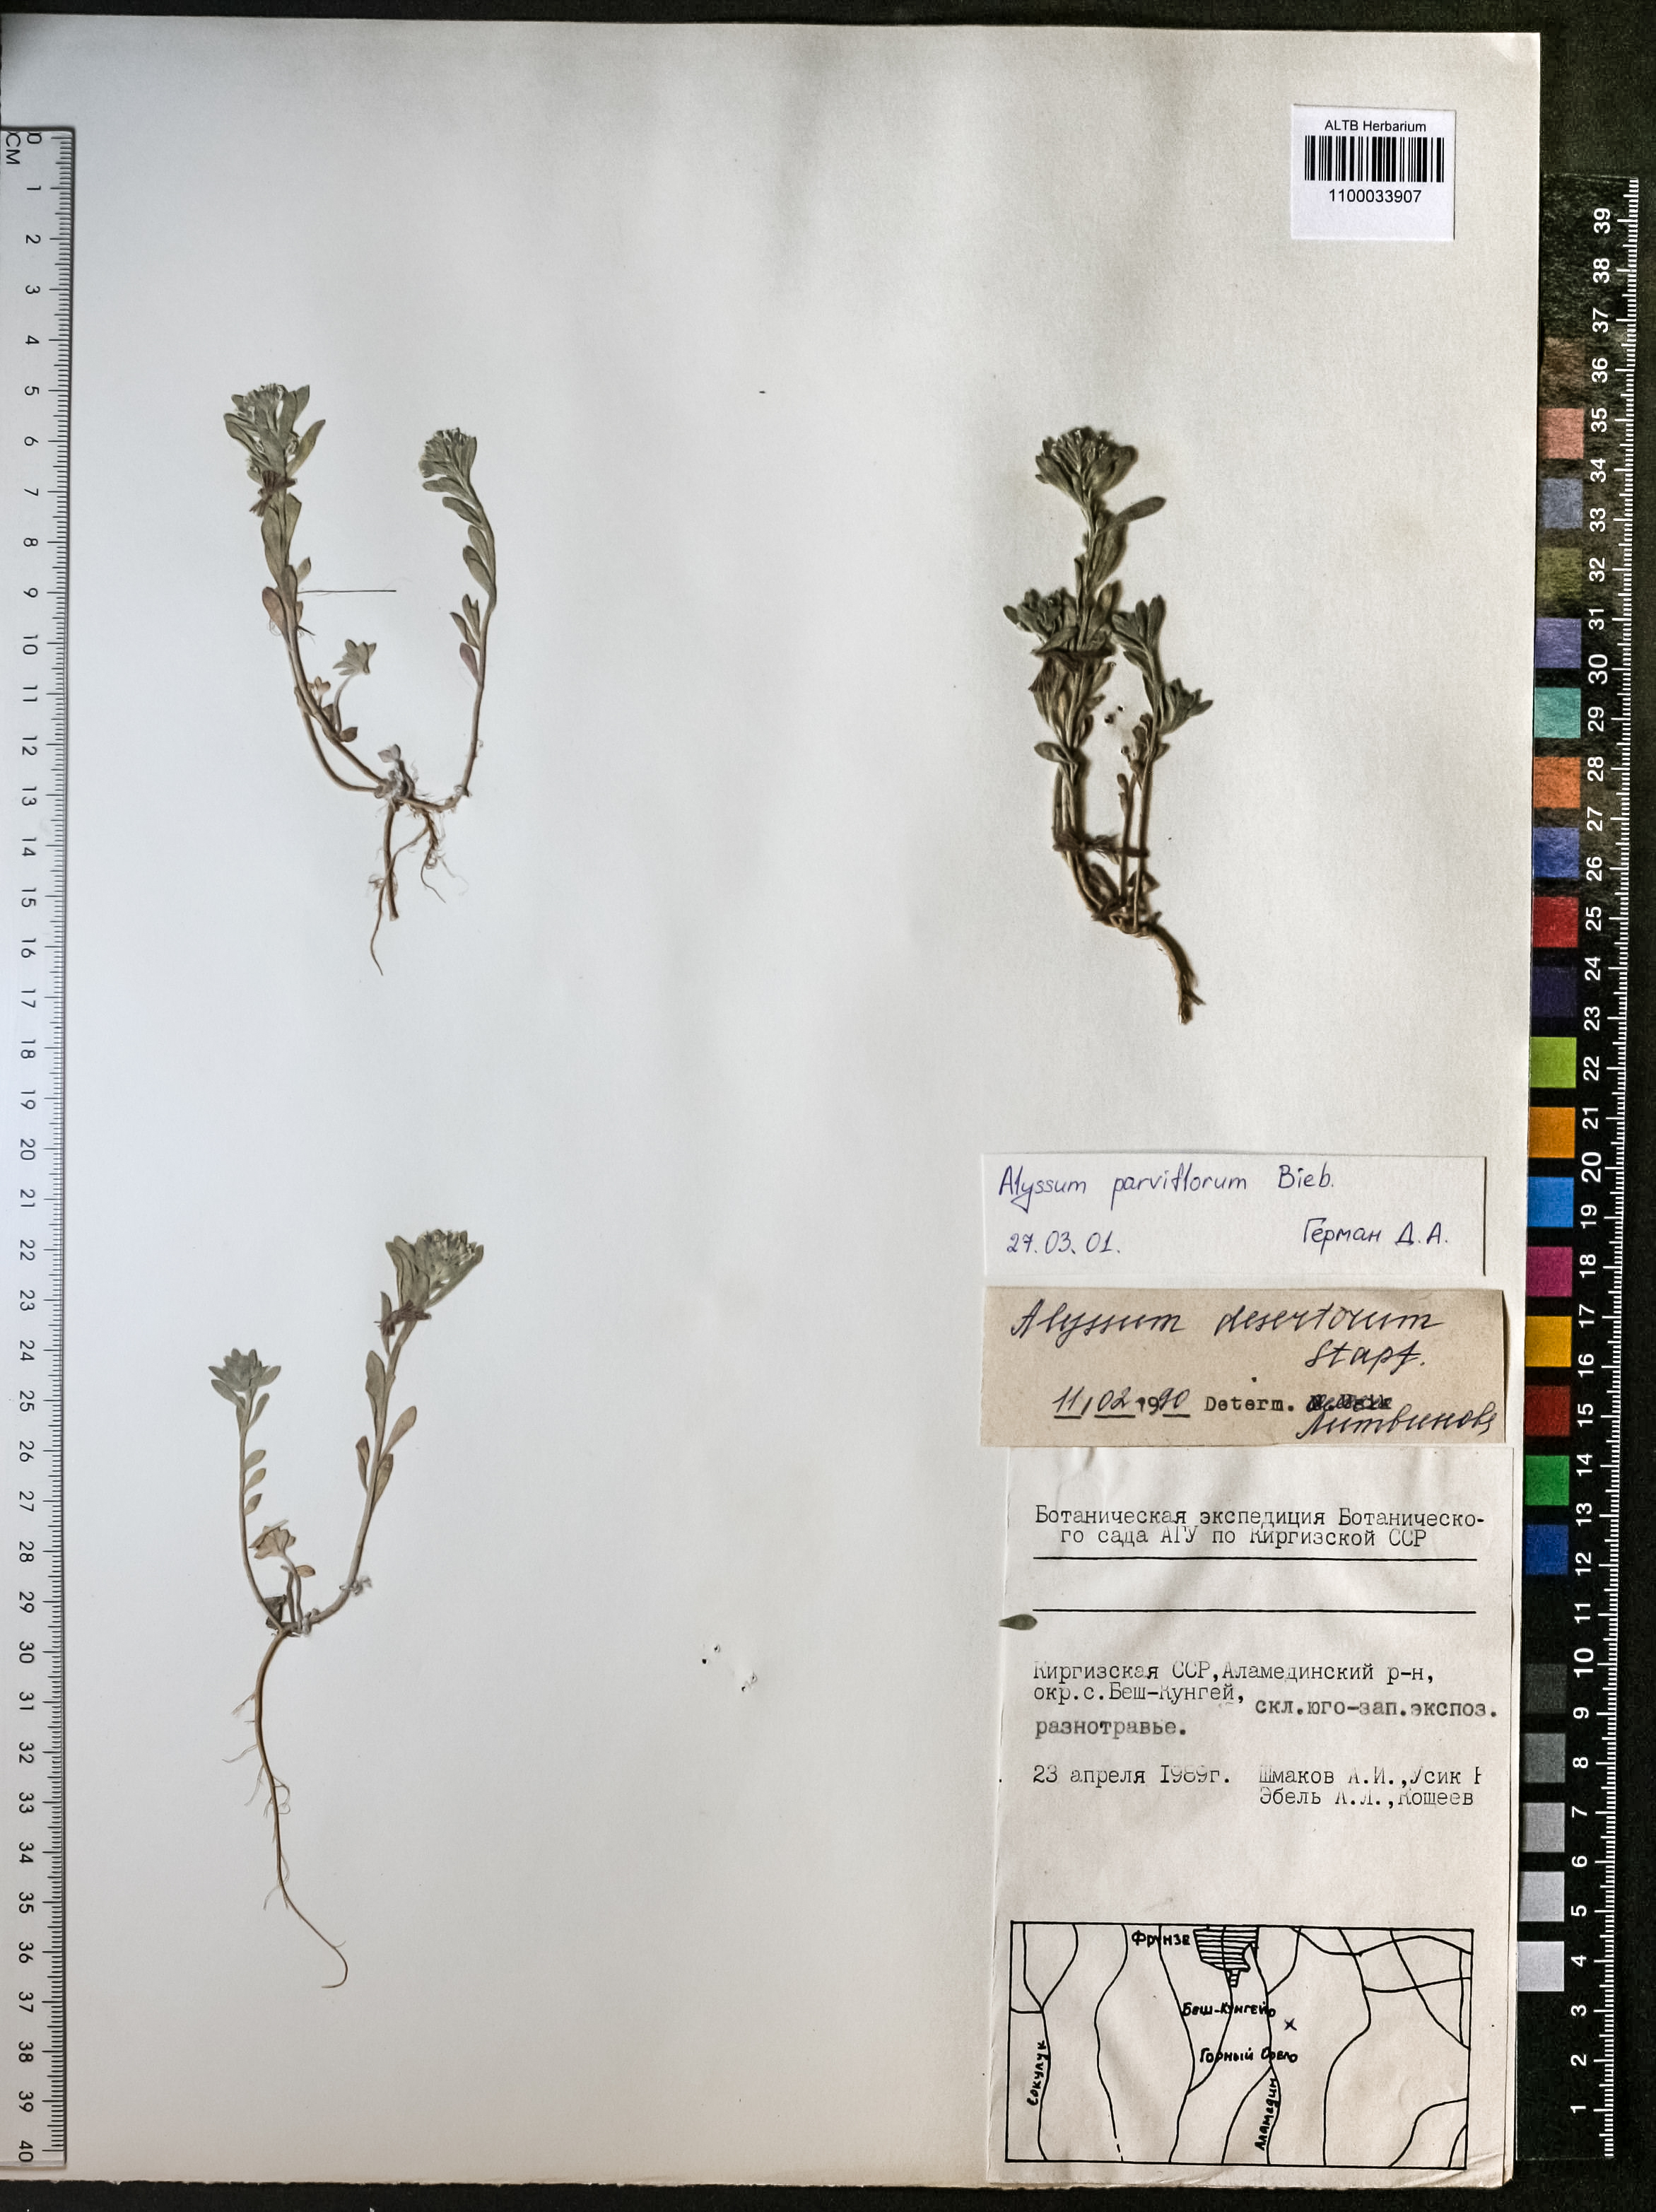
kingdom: Plantae
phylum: Tracheophyta
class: Magnoliopsida
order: Brassicales
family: Brassicaceae
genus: Alyssum
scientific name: Alyssum simplex
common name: Alyssum
